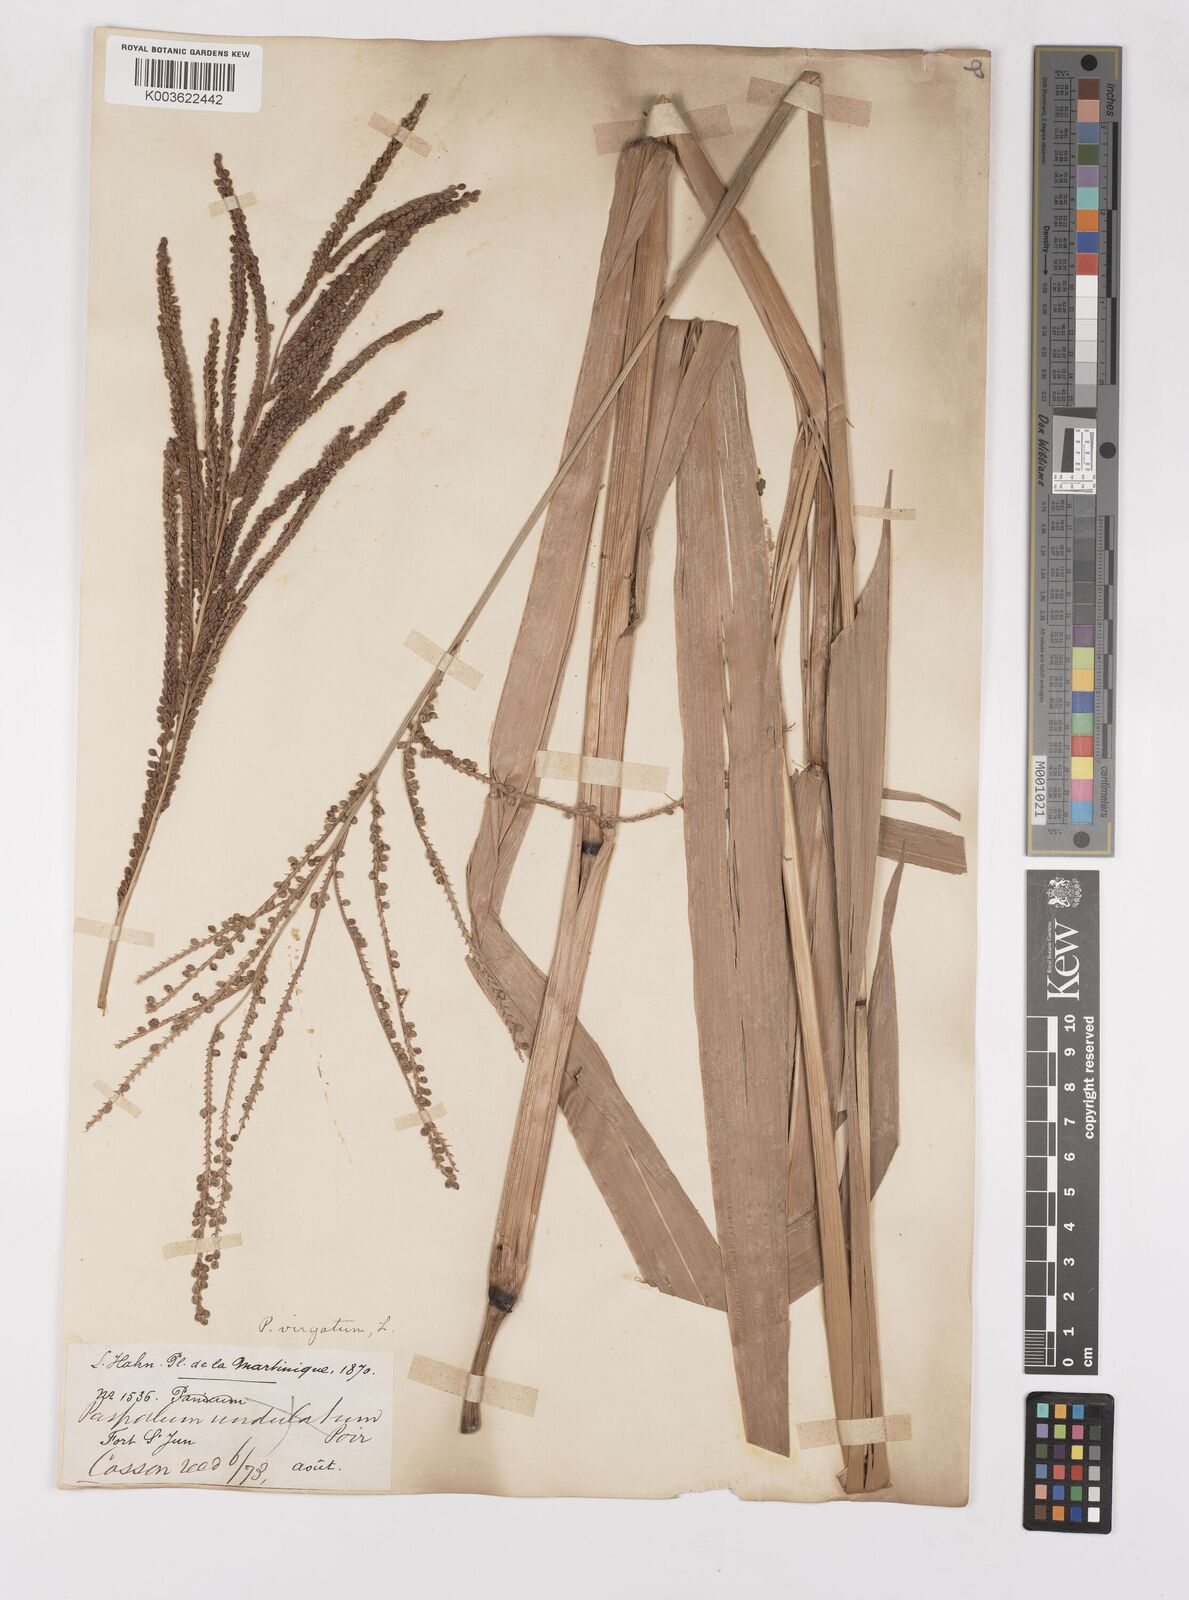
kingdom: Plantae
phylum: Tracheophyta
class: Liliopsida
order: Poales
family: Poaceae
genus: Paspalum
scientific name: Paspalum virgatum
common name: Talquezal
